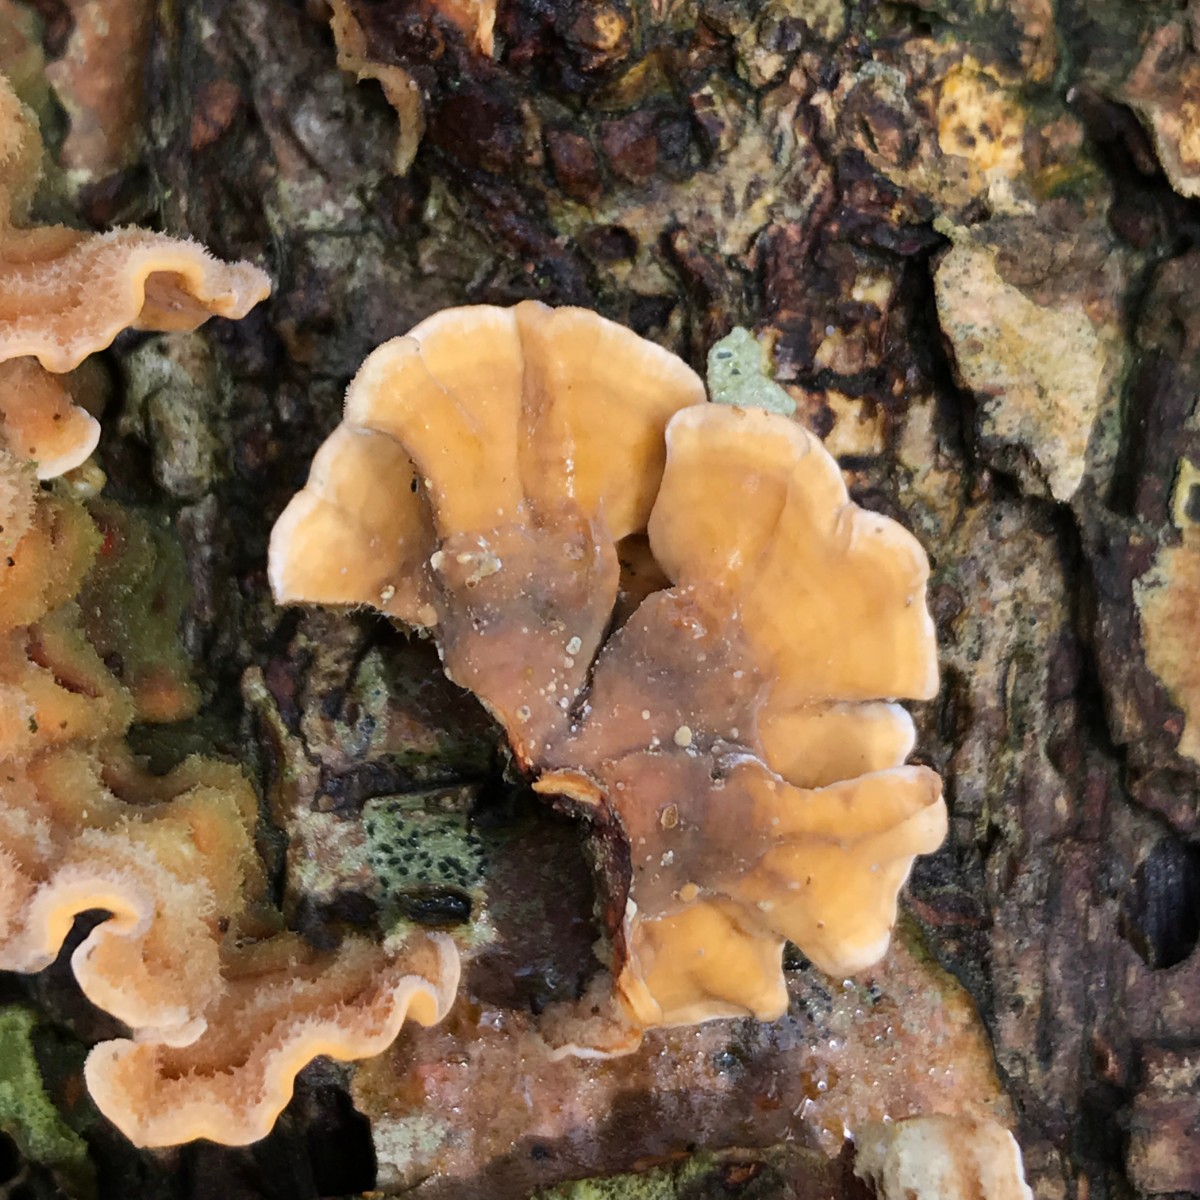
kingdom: Fungi
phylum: Basidiomycota
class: Agaricomycetes
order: Russulales
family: Stereaceae
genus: Stereum
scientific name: Stereum hirsutum
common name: håret lædersvamp
